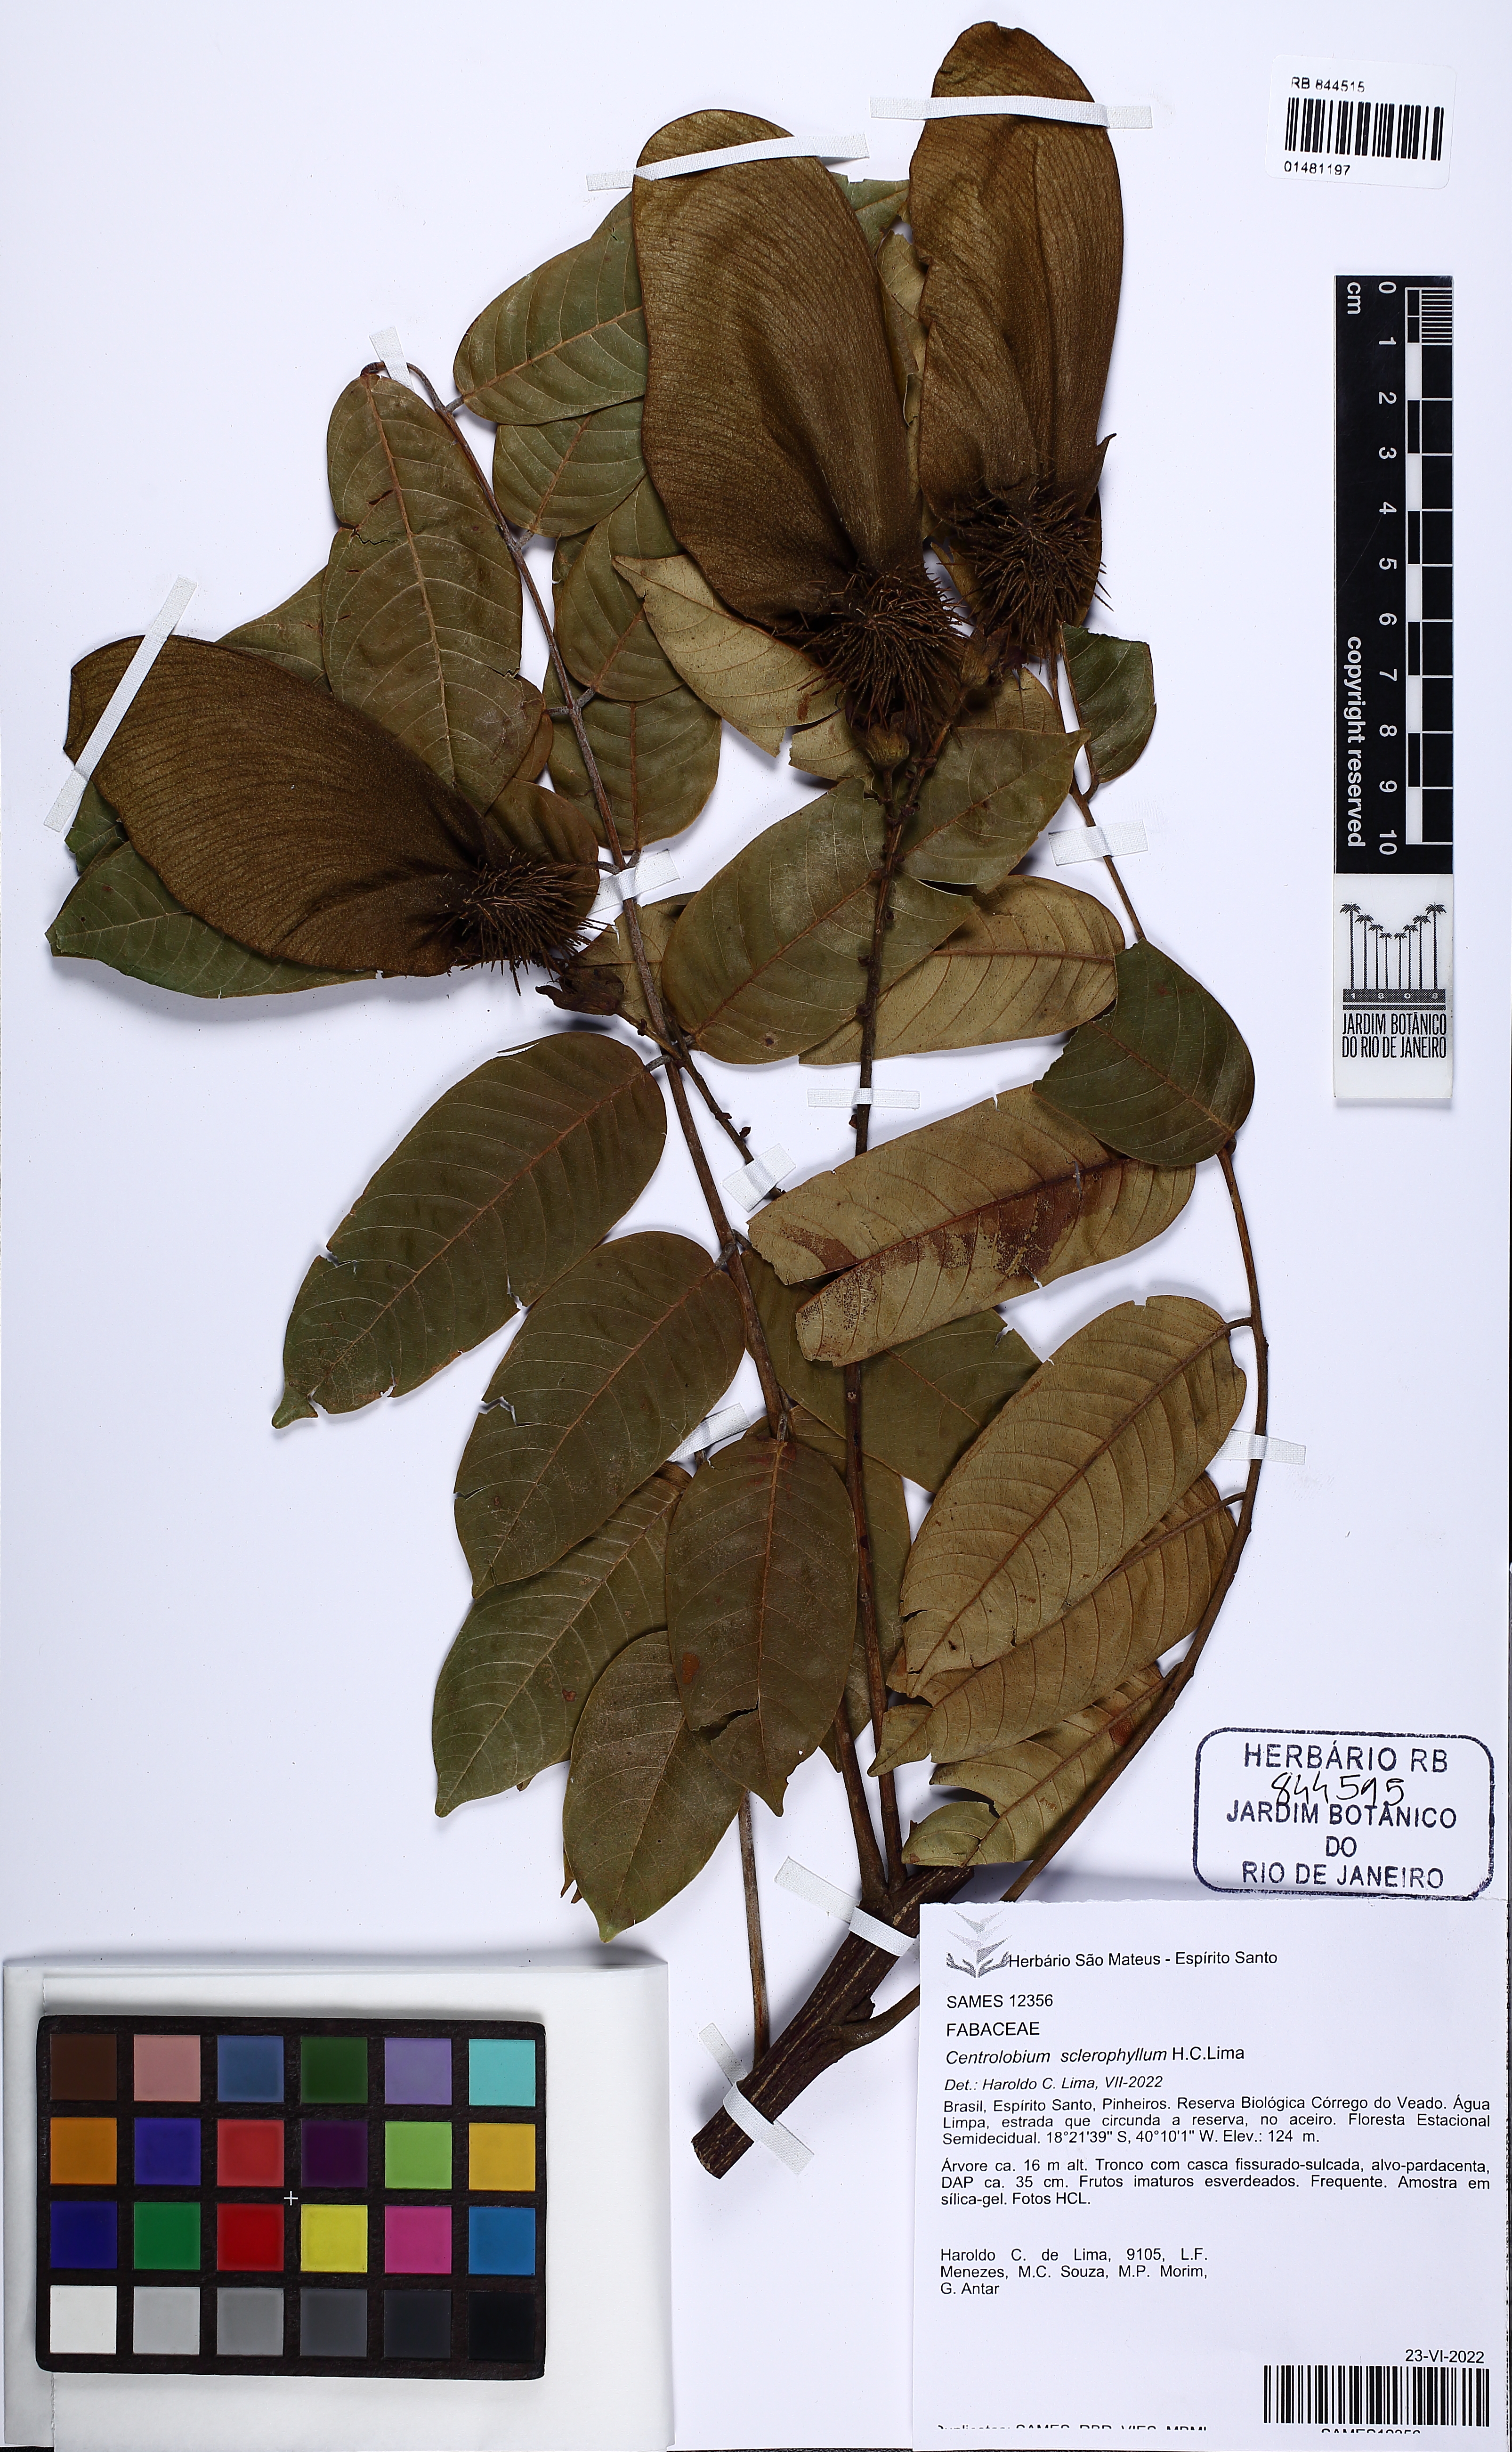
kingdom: Plantae
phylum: Tracheophyta
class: Magnoliopsida
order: Fabales
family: Fabaceae
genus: Centrolobium
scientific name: Centrolobium sclerophyllum
